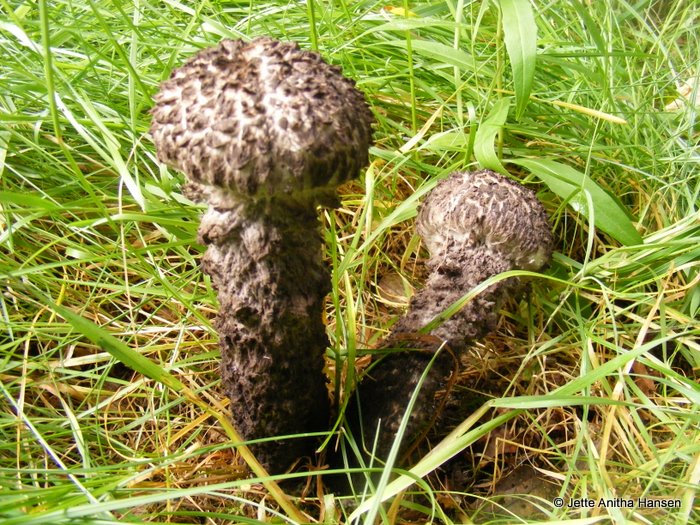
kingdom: Fungi
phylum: Basidiomycota
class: Agaricomycetes
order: Boletales
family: Boletaceae
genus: Strobilomyces
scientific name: Strobilomyces strobilaceus
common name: koglerørhat
